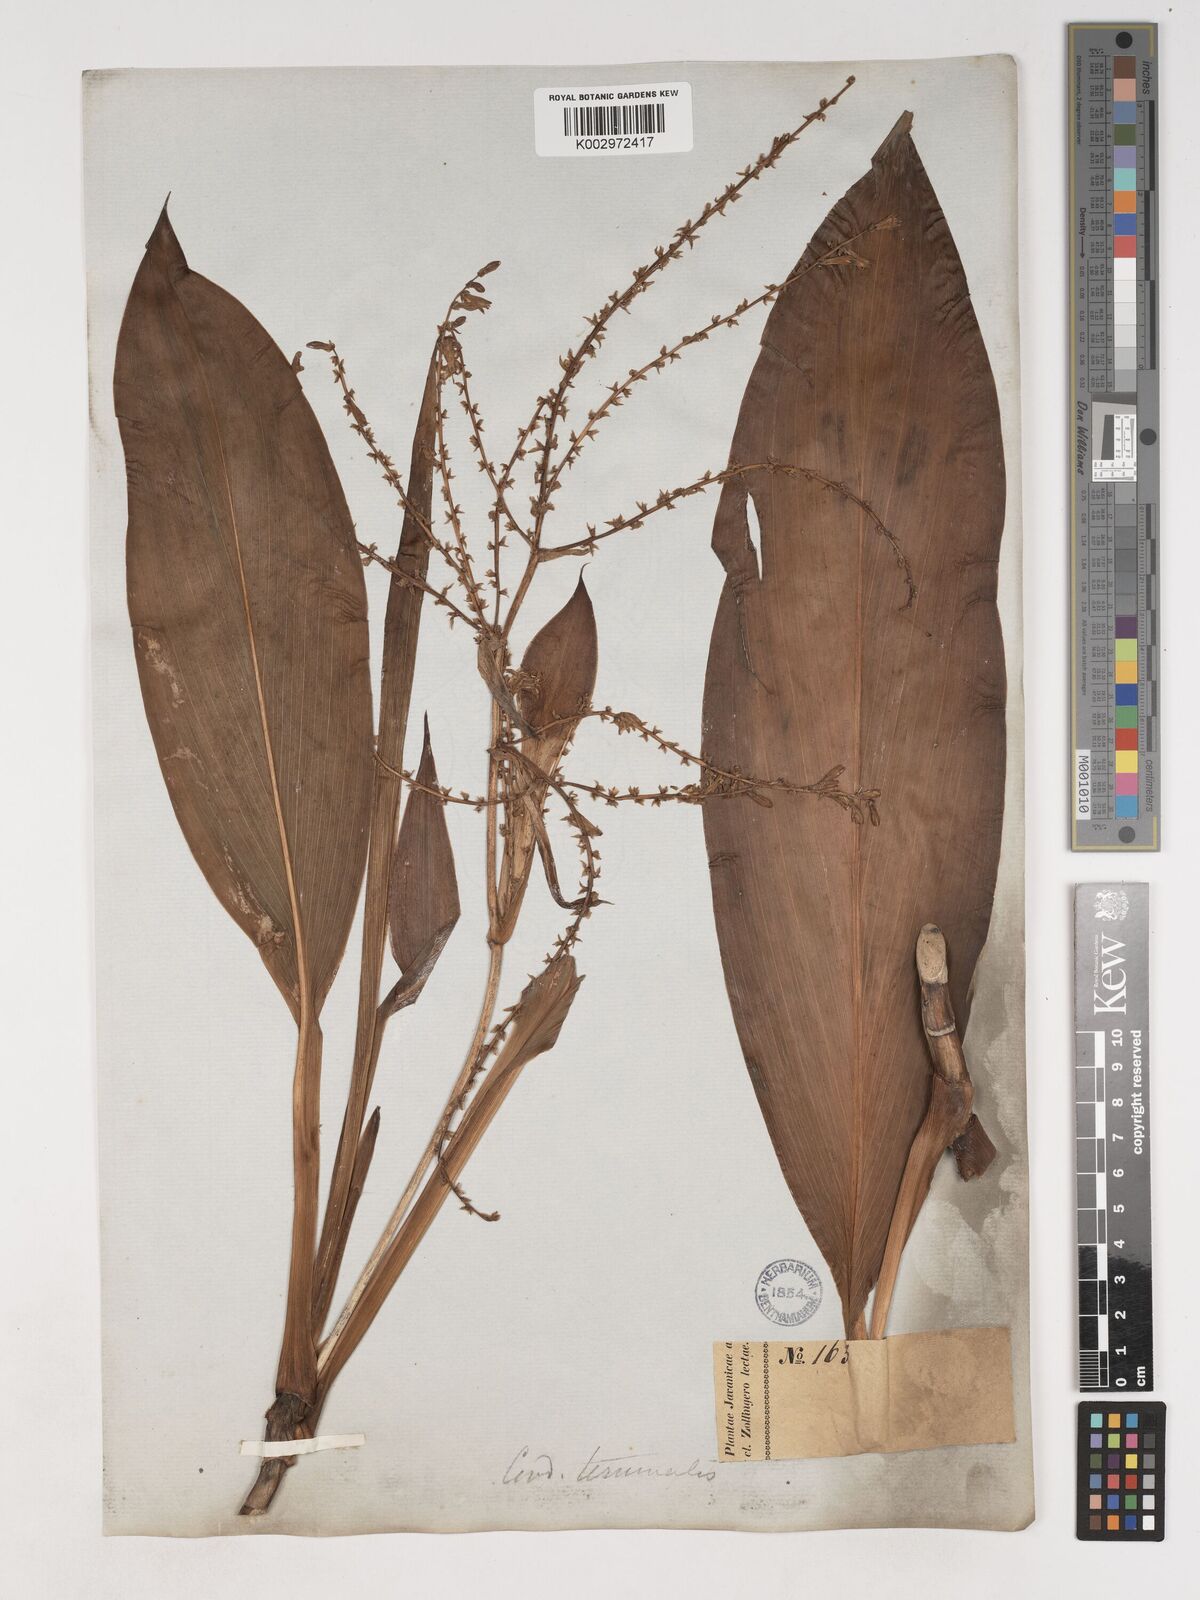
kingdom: Plantae
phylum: Tracheophyta
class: Liliopsida
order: Asparagales
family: Asparagaceae
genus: Cordyline
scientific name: Cordyline
